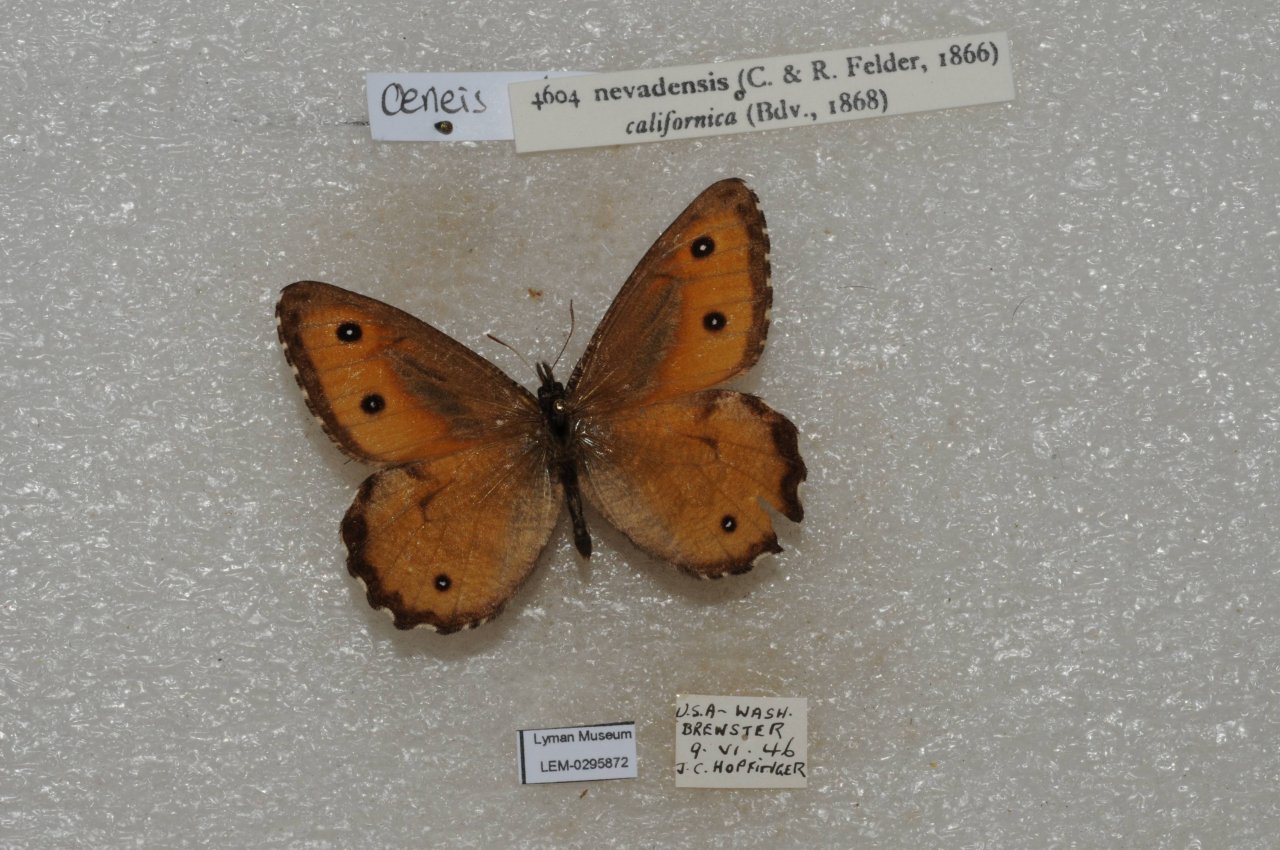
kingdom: Animalia
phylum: Arthropoda
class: Insecta
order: Lepidoptera
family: Nymphalidae
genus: Oeneis
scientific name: Oeneis nevadensis
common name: Great Arctic
